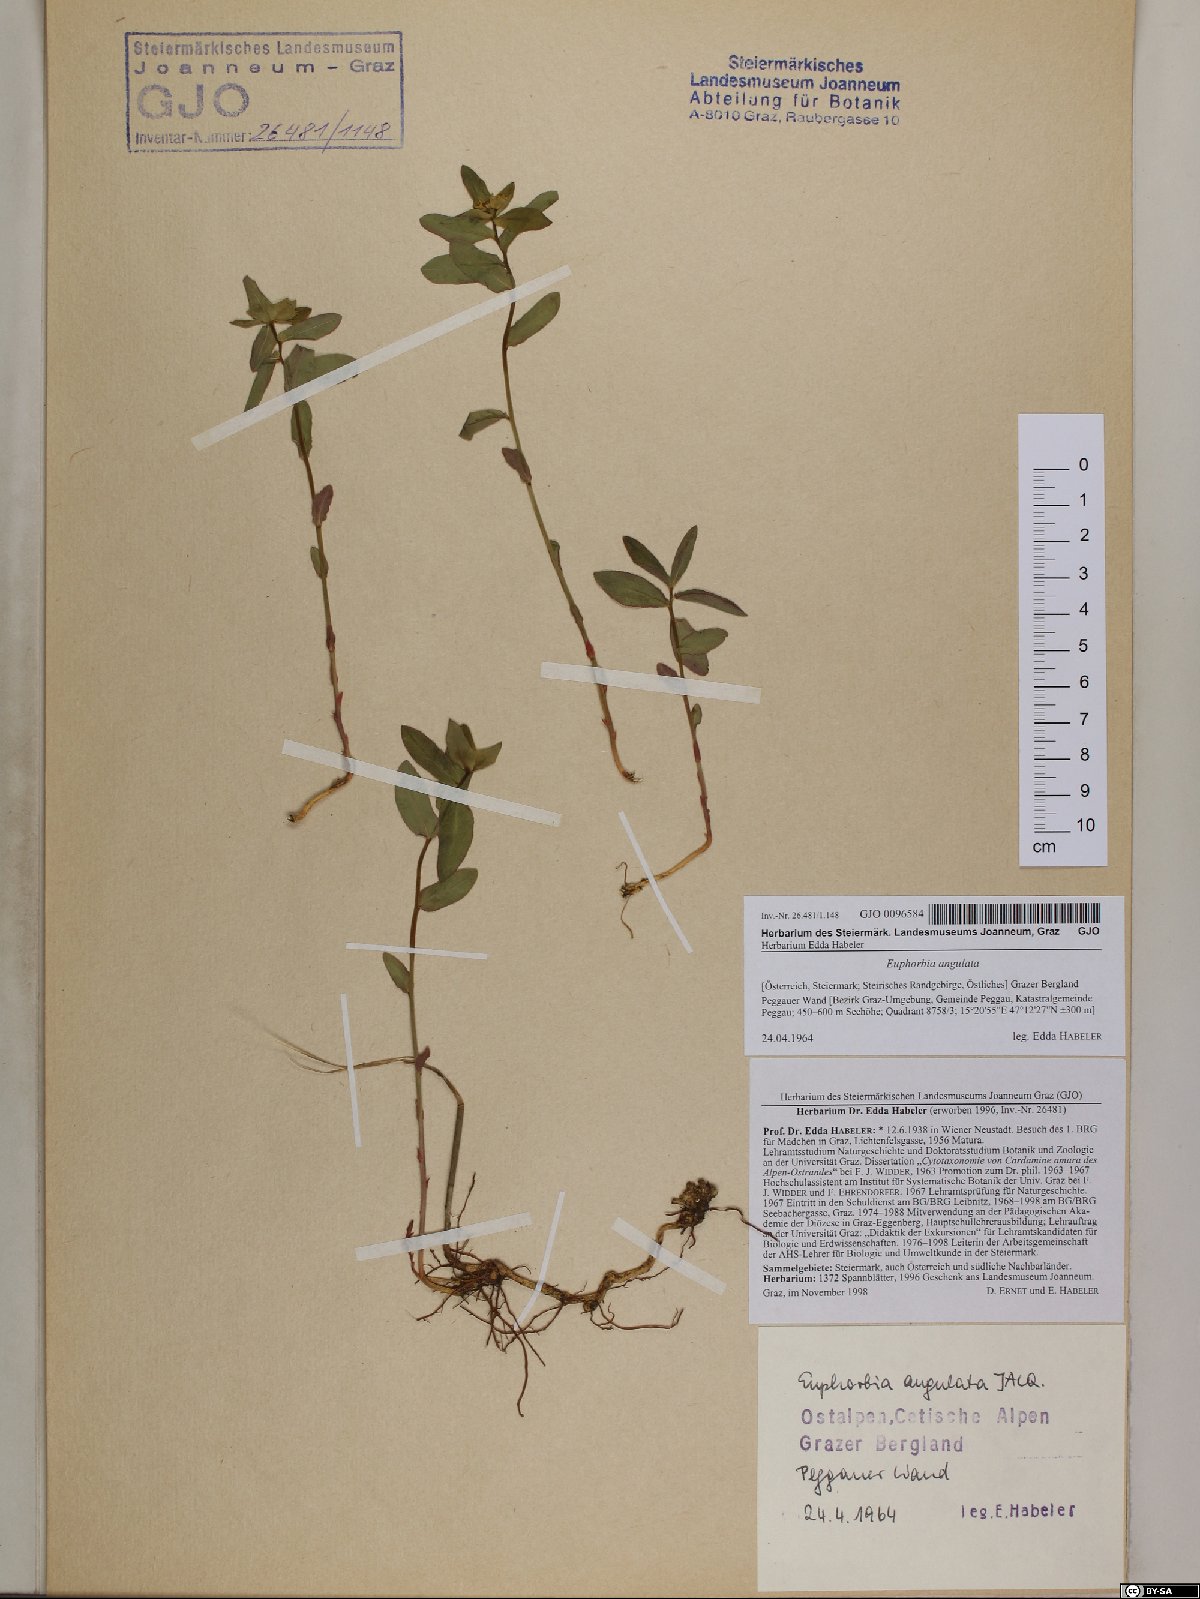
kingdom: Plantae
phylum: Tracheophyta
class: Magnoliopsida
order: Malpighiales
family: Euphorbiaceae
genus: Euphorbia
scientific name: Euphorbia angulata
